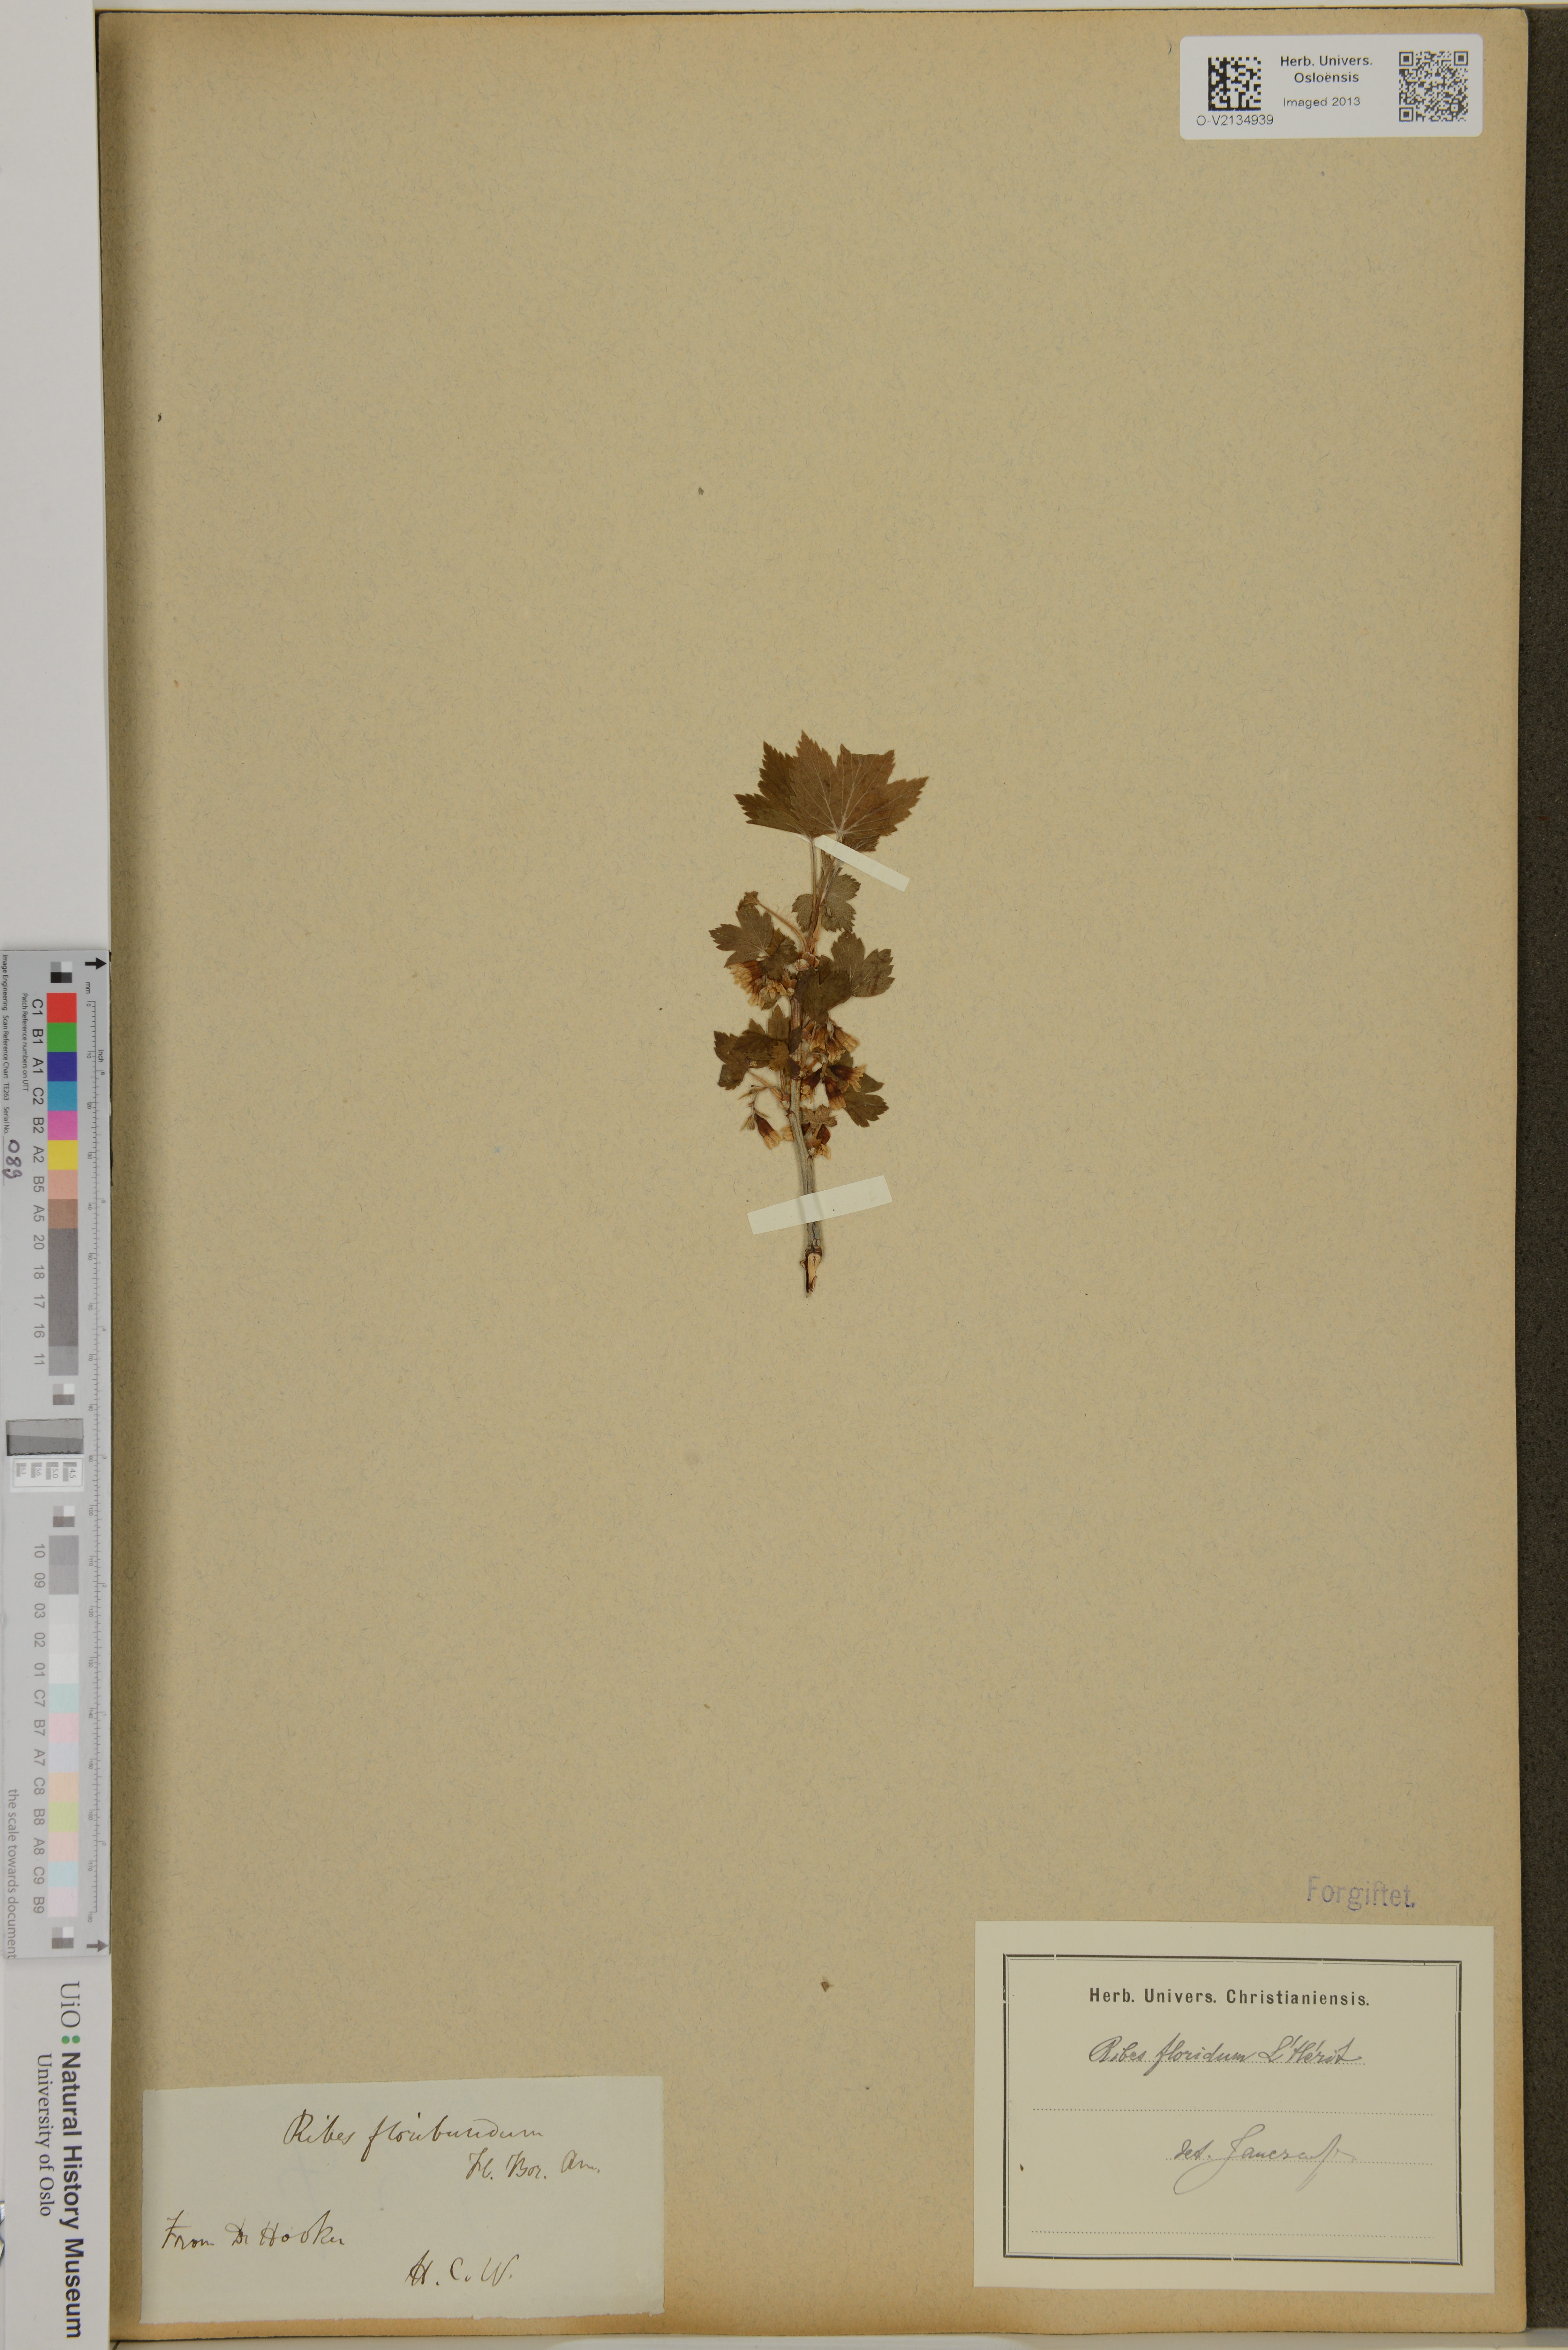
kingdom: Plantae
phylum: Tracheophyta
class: Magnoliopsida
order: Saxifragales
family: Grossulariaceae
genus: Ribes
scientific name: Ribes
